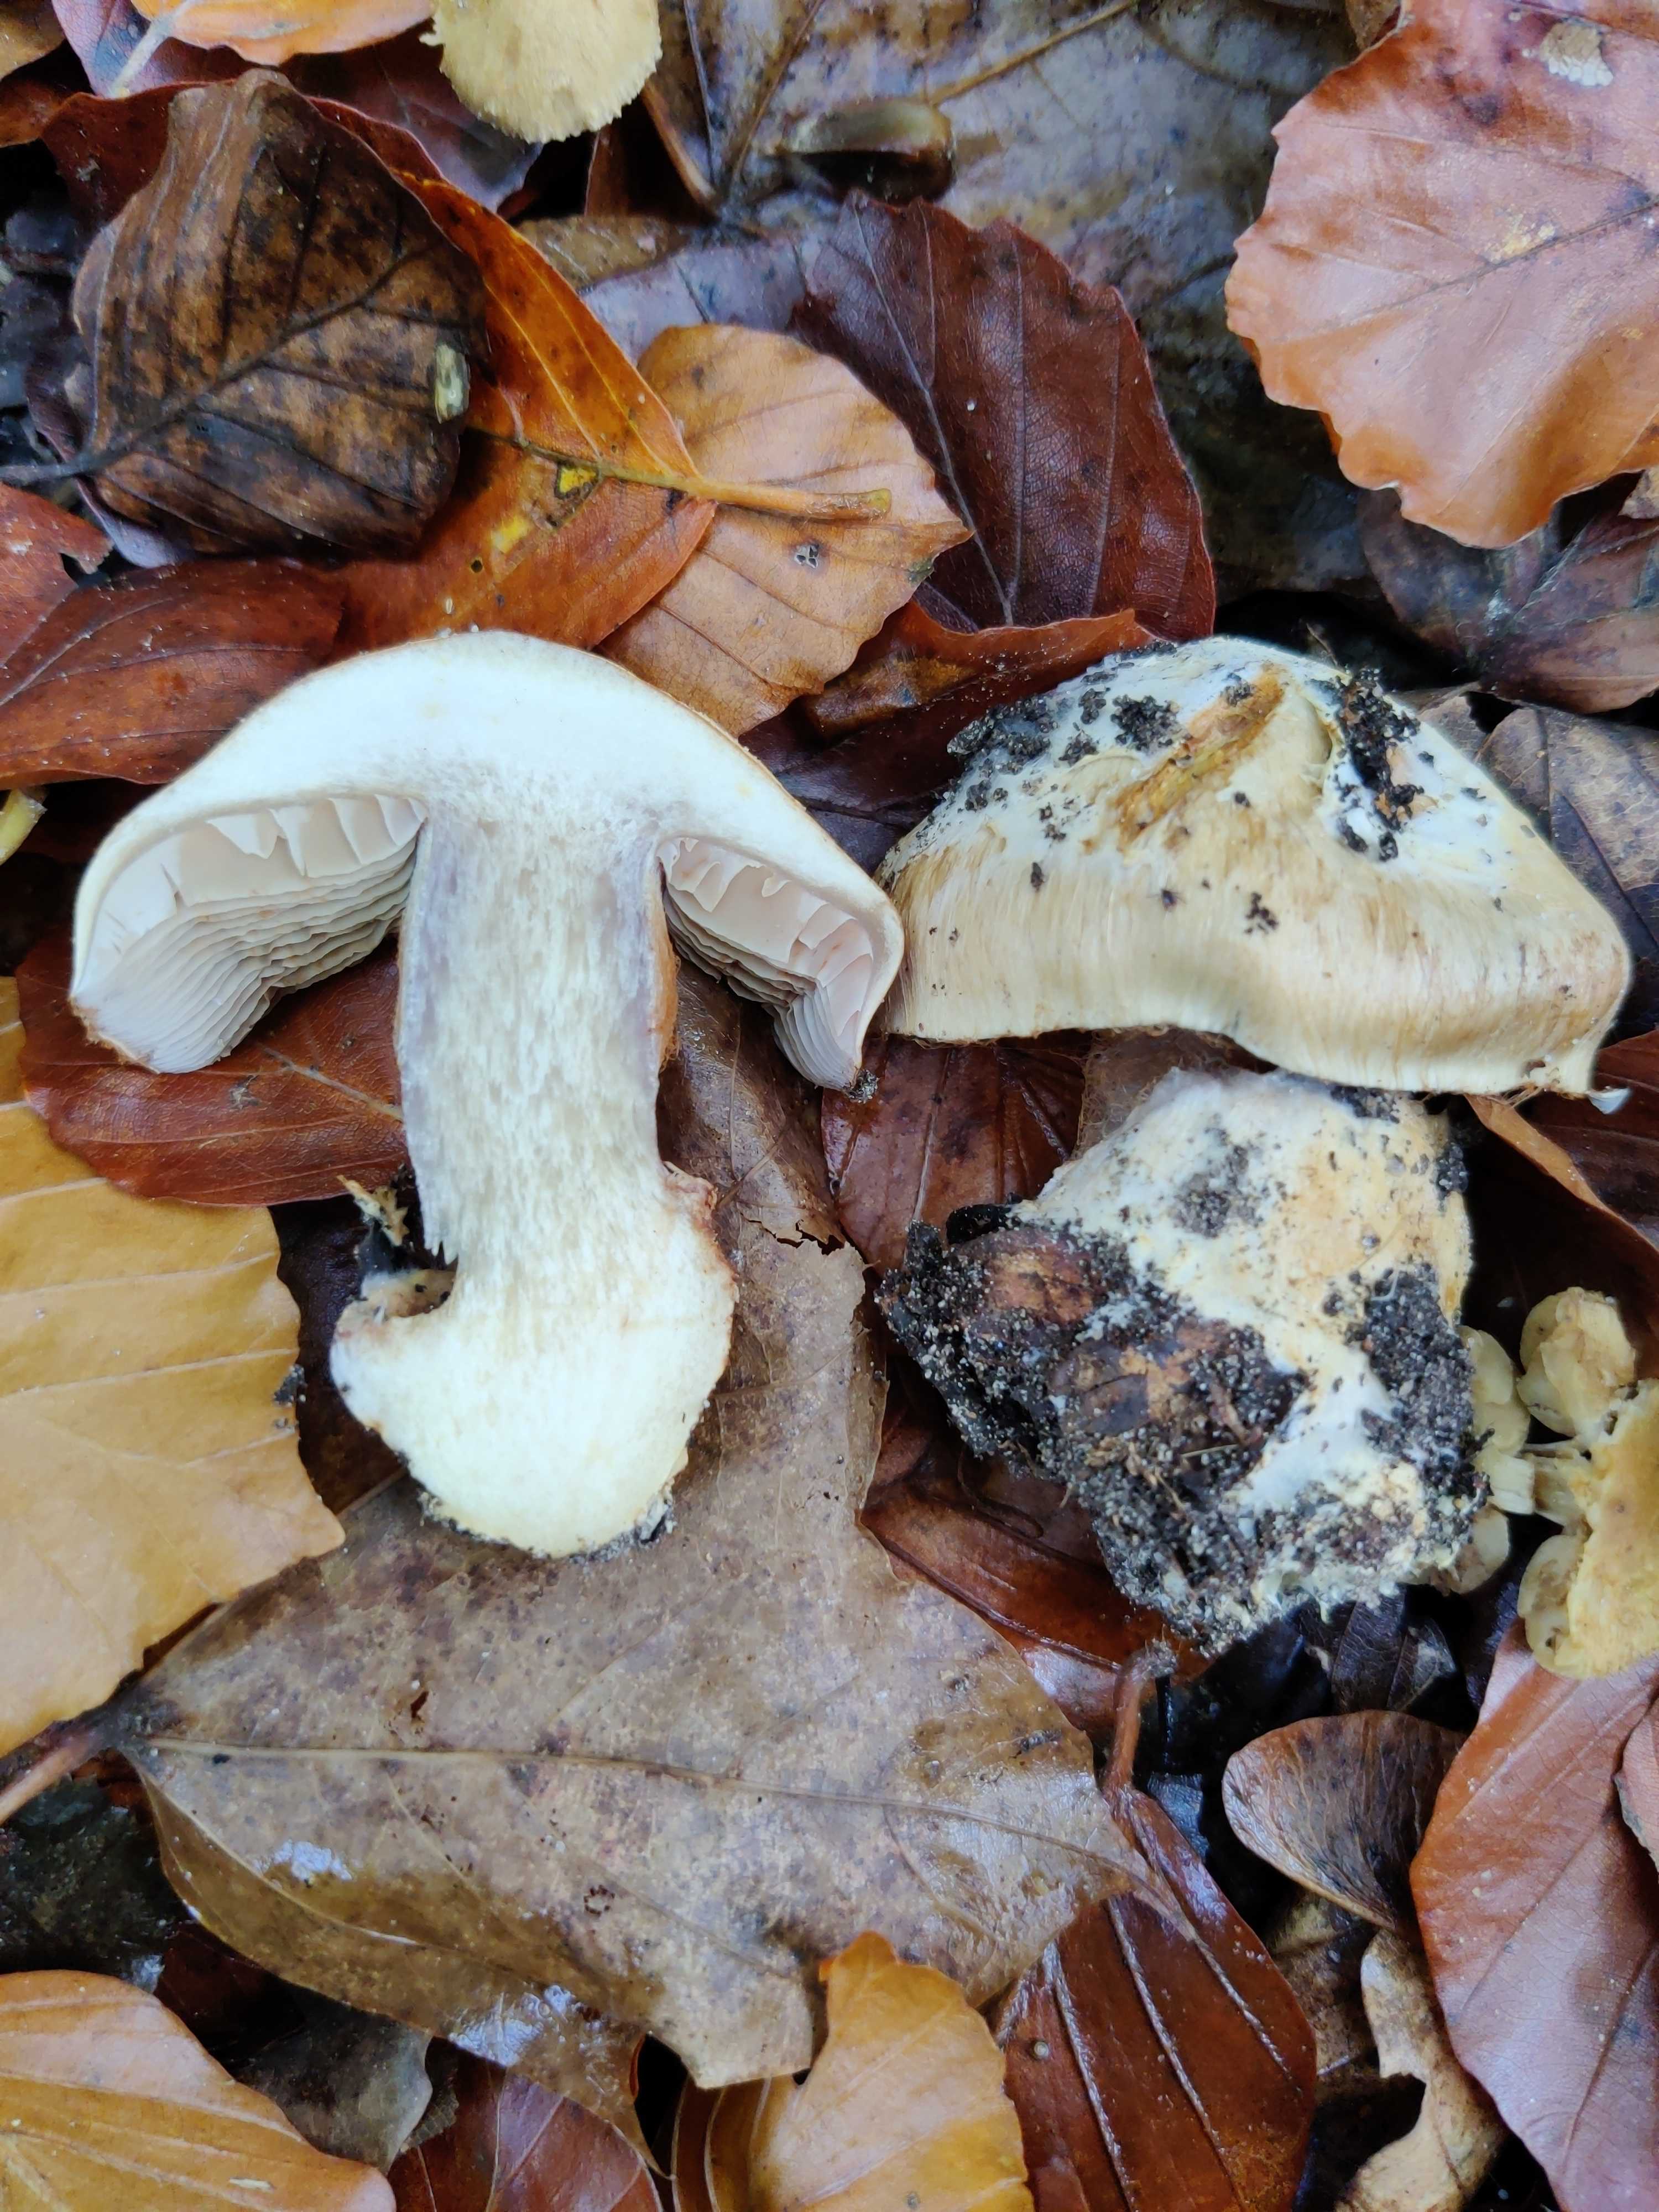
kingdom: Fungi
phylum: Basidiomycota
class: Agaricomycetes
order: Agaricales
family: Cortinariaceae
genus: Cortinarius
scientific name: Cortinarius foetens
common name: stribet slørhat
